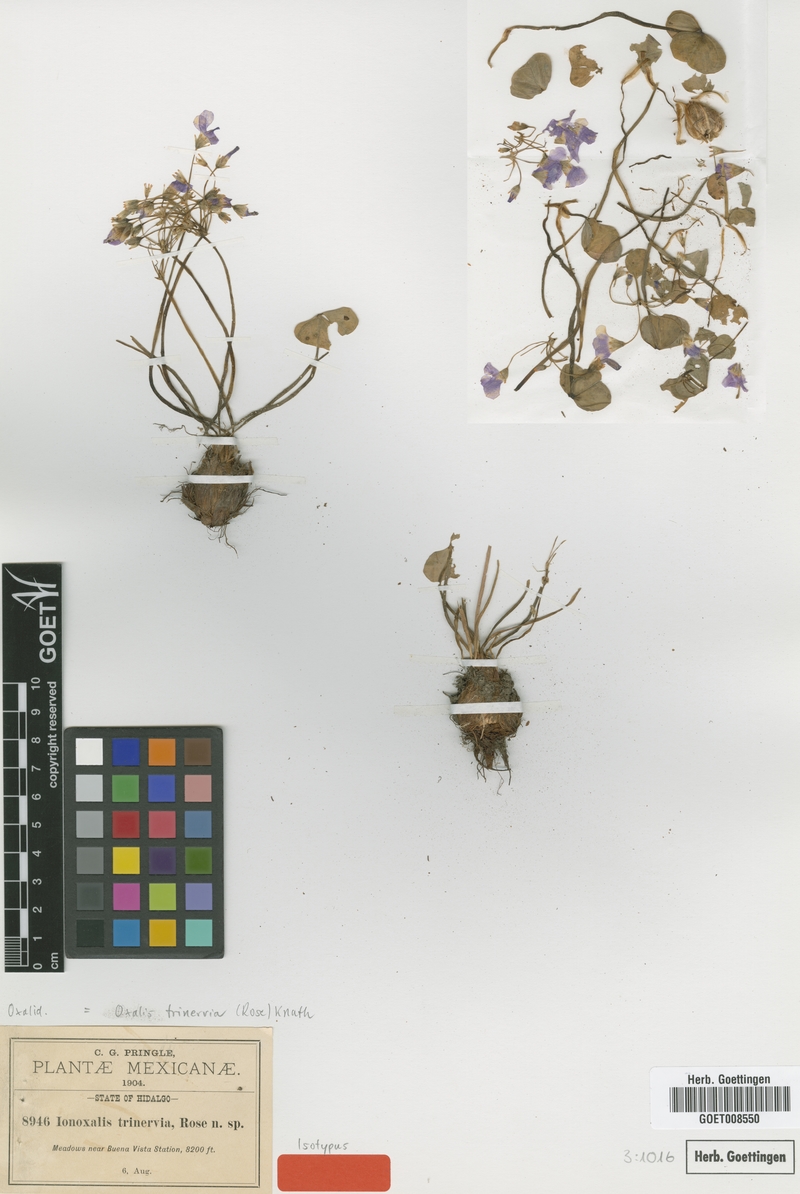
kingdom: Plantae
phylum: Tracheophyta
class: Magnoliopsida
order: Oxalidales
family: Oxalidaceae
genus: Oxalis
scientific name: Oxalis jacquiniana
